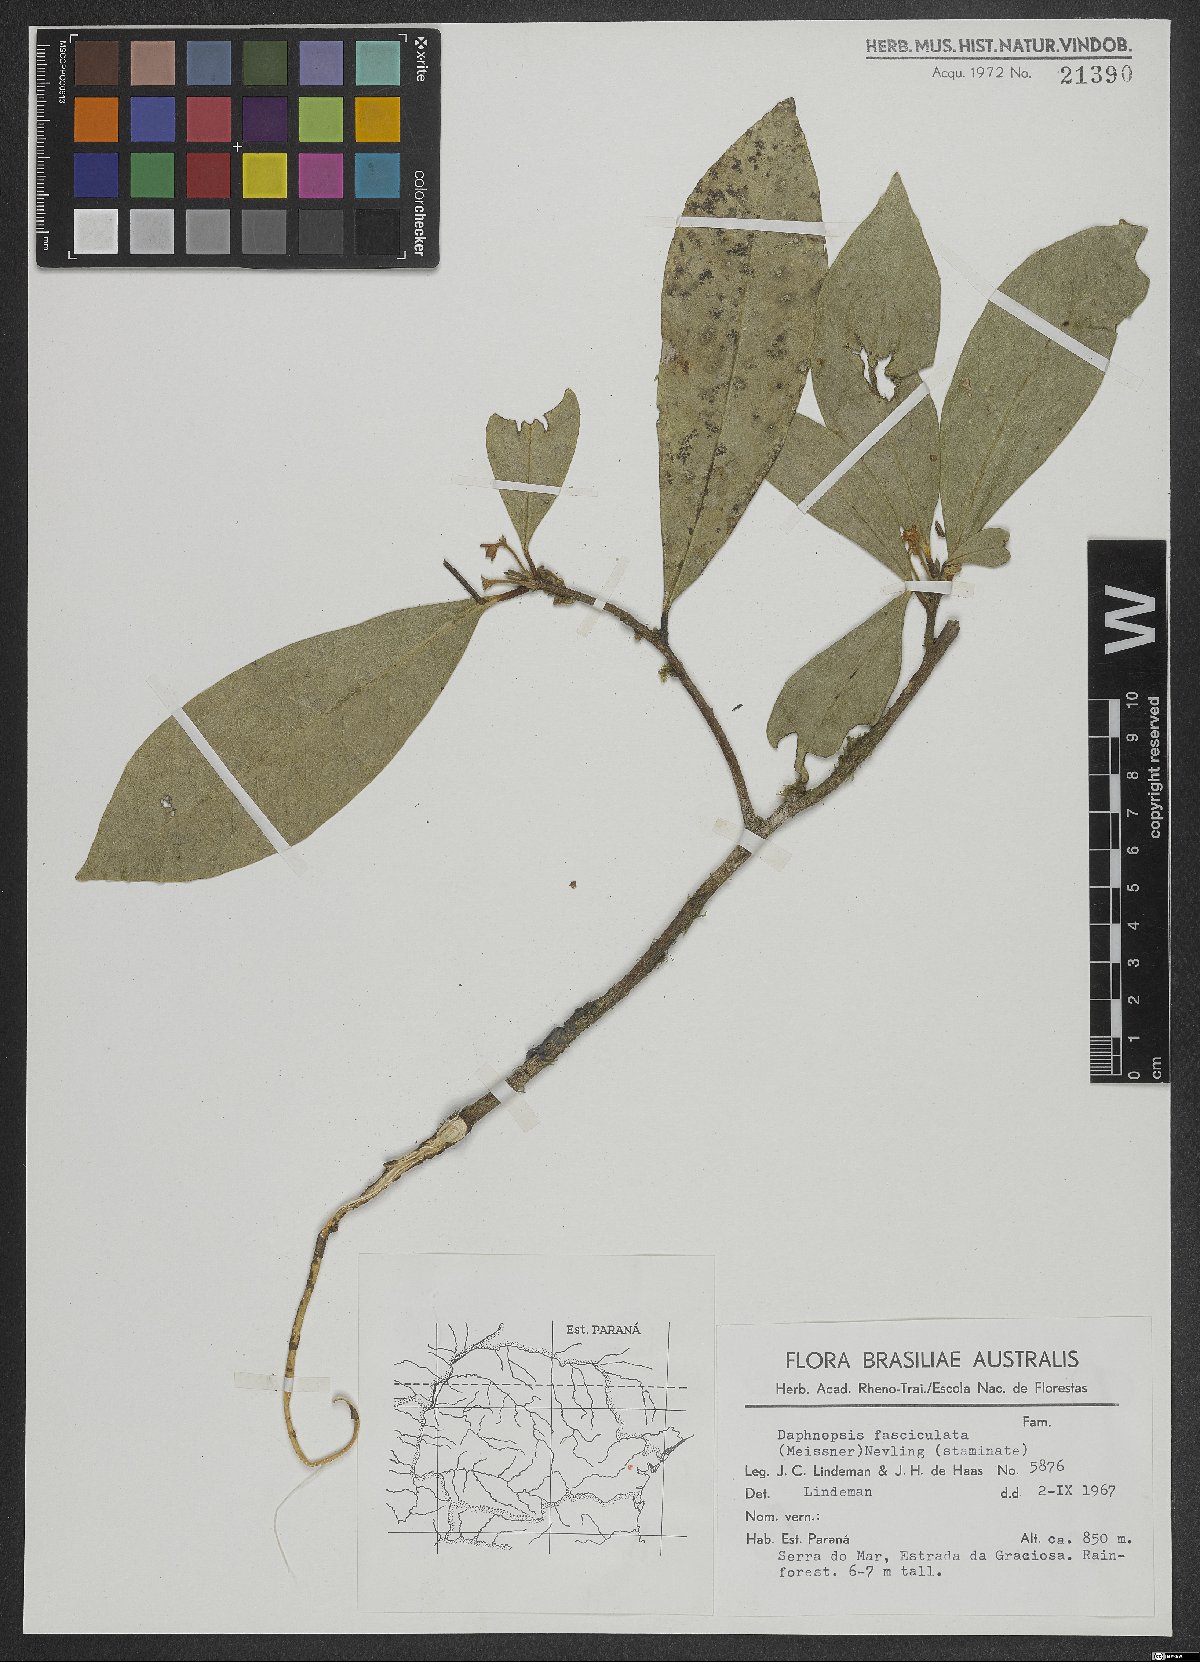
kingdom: Plantae
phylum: Tracheophyta
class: Magnoliopsida
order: Malvales
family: Thymelaeaceae
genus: Daphnopsis
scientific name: Daphnopsis fasciculata
